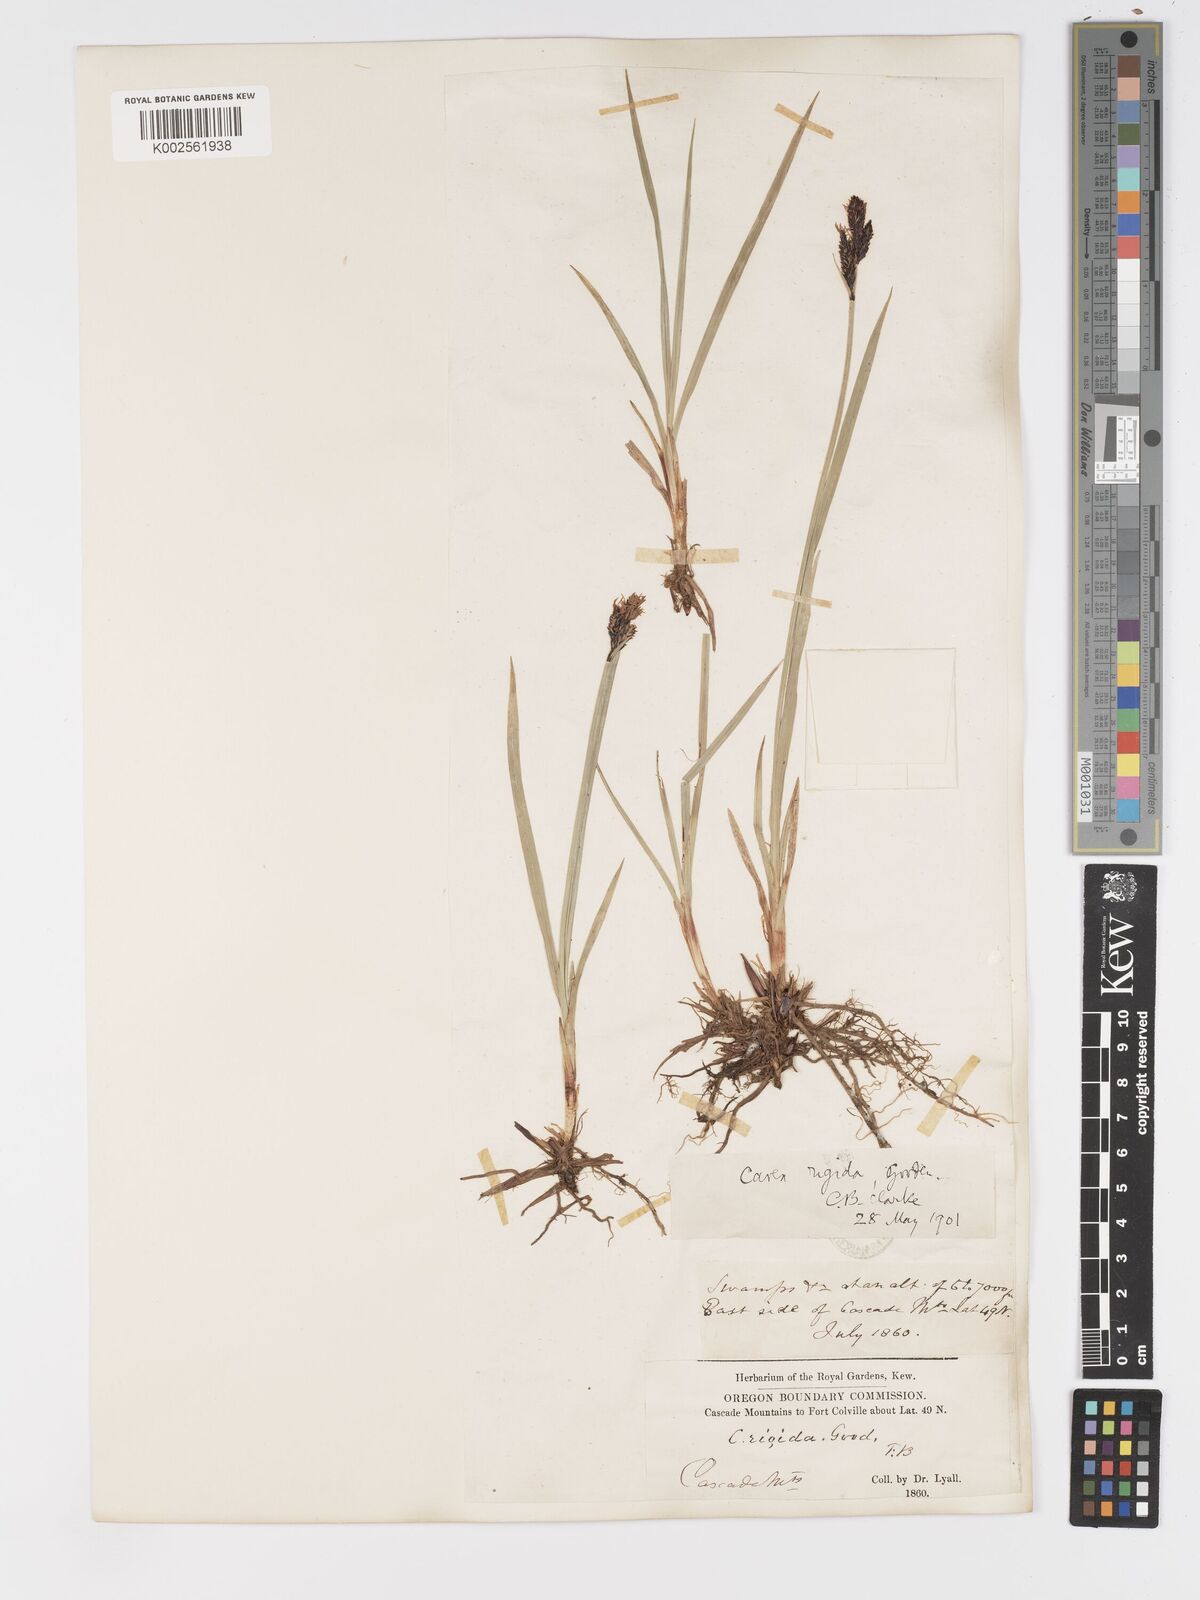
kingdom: Plantae
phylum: Tracheophyta
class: Liliopsida
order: Poales
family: Cyperaceae
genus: Carex
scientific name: Carex bigelowii
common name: Stiff sedge
